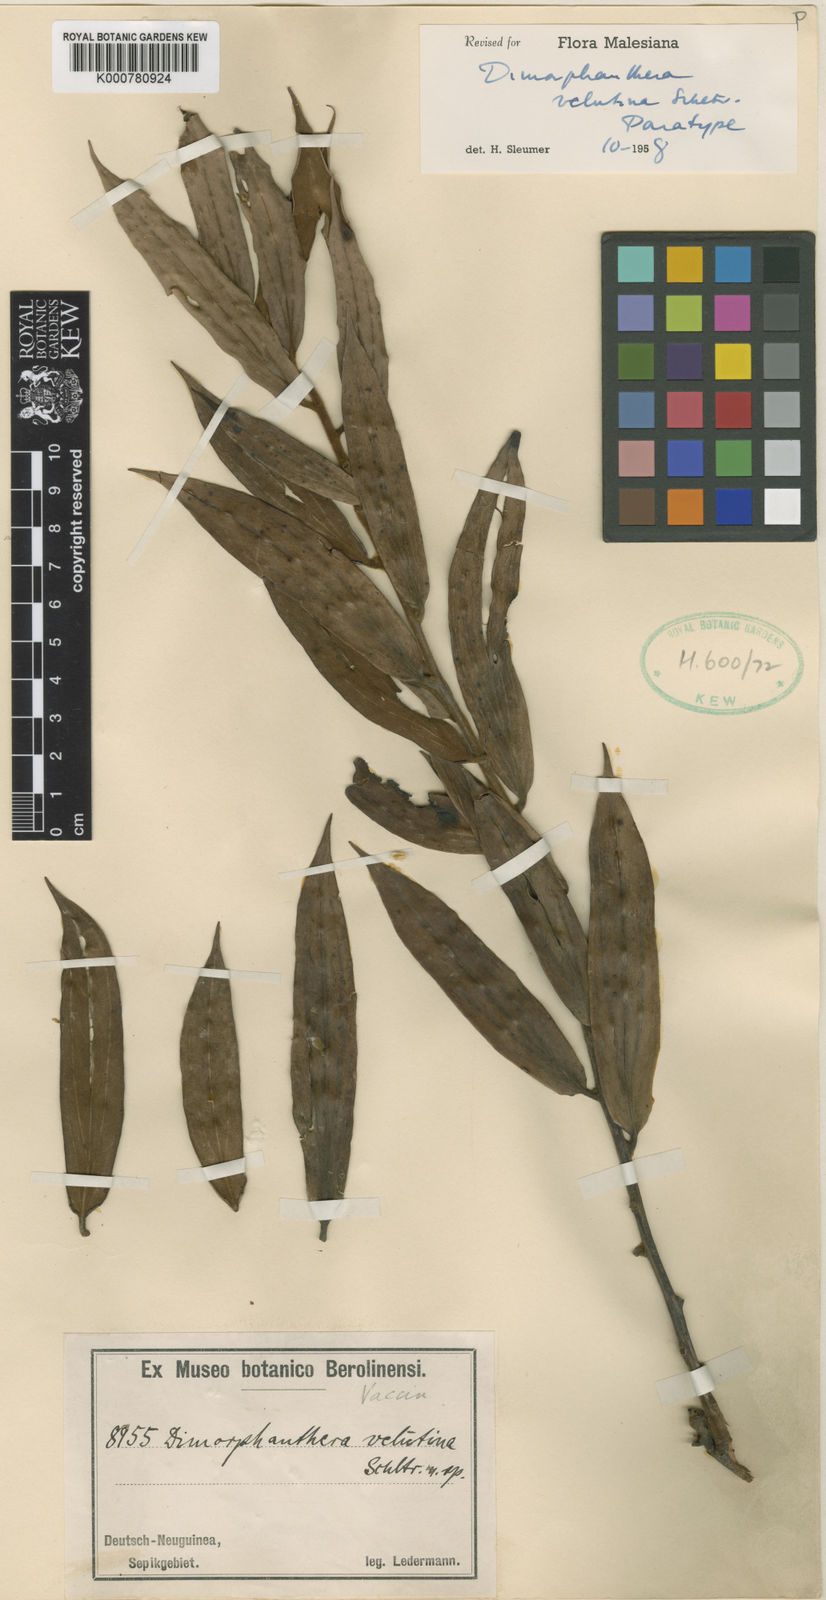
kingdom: Plantae
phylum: Tracheophyta
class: Magnoliopsida
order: Ericales
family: Ericaceae
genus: Dimorphanthera
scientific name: Dimorphanthera velutina
